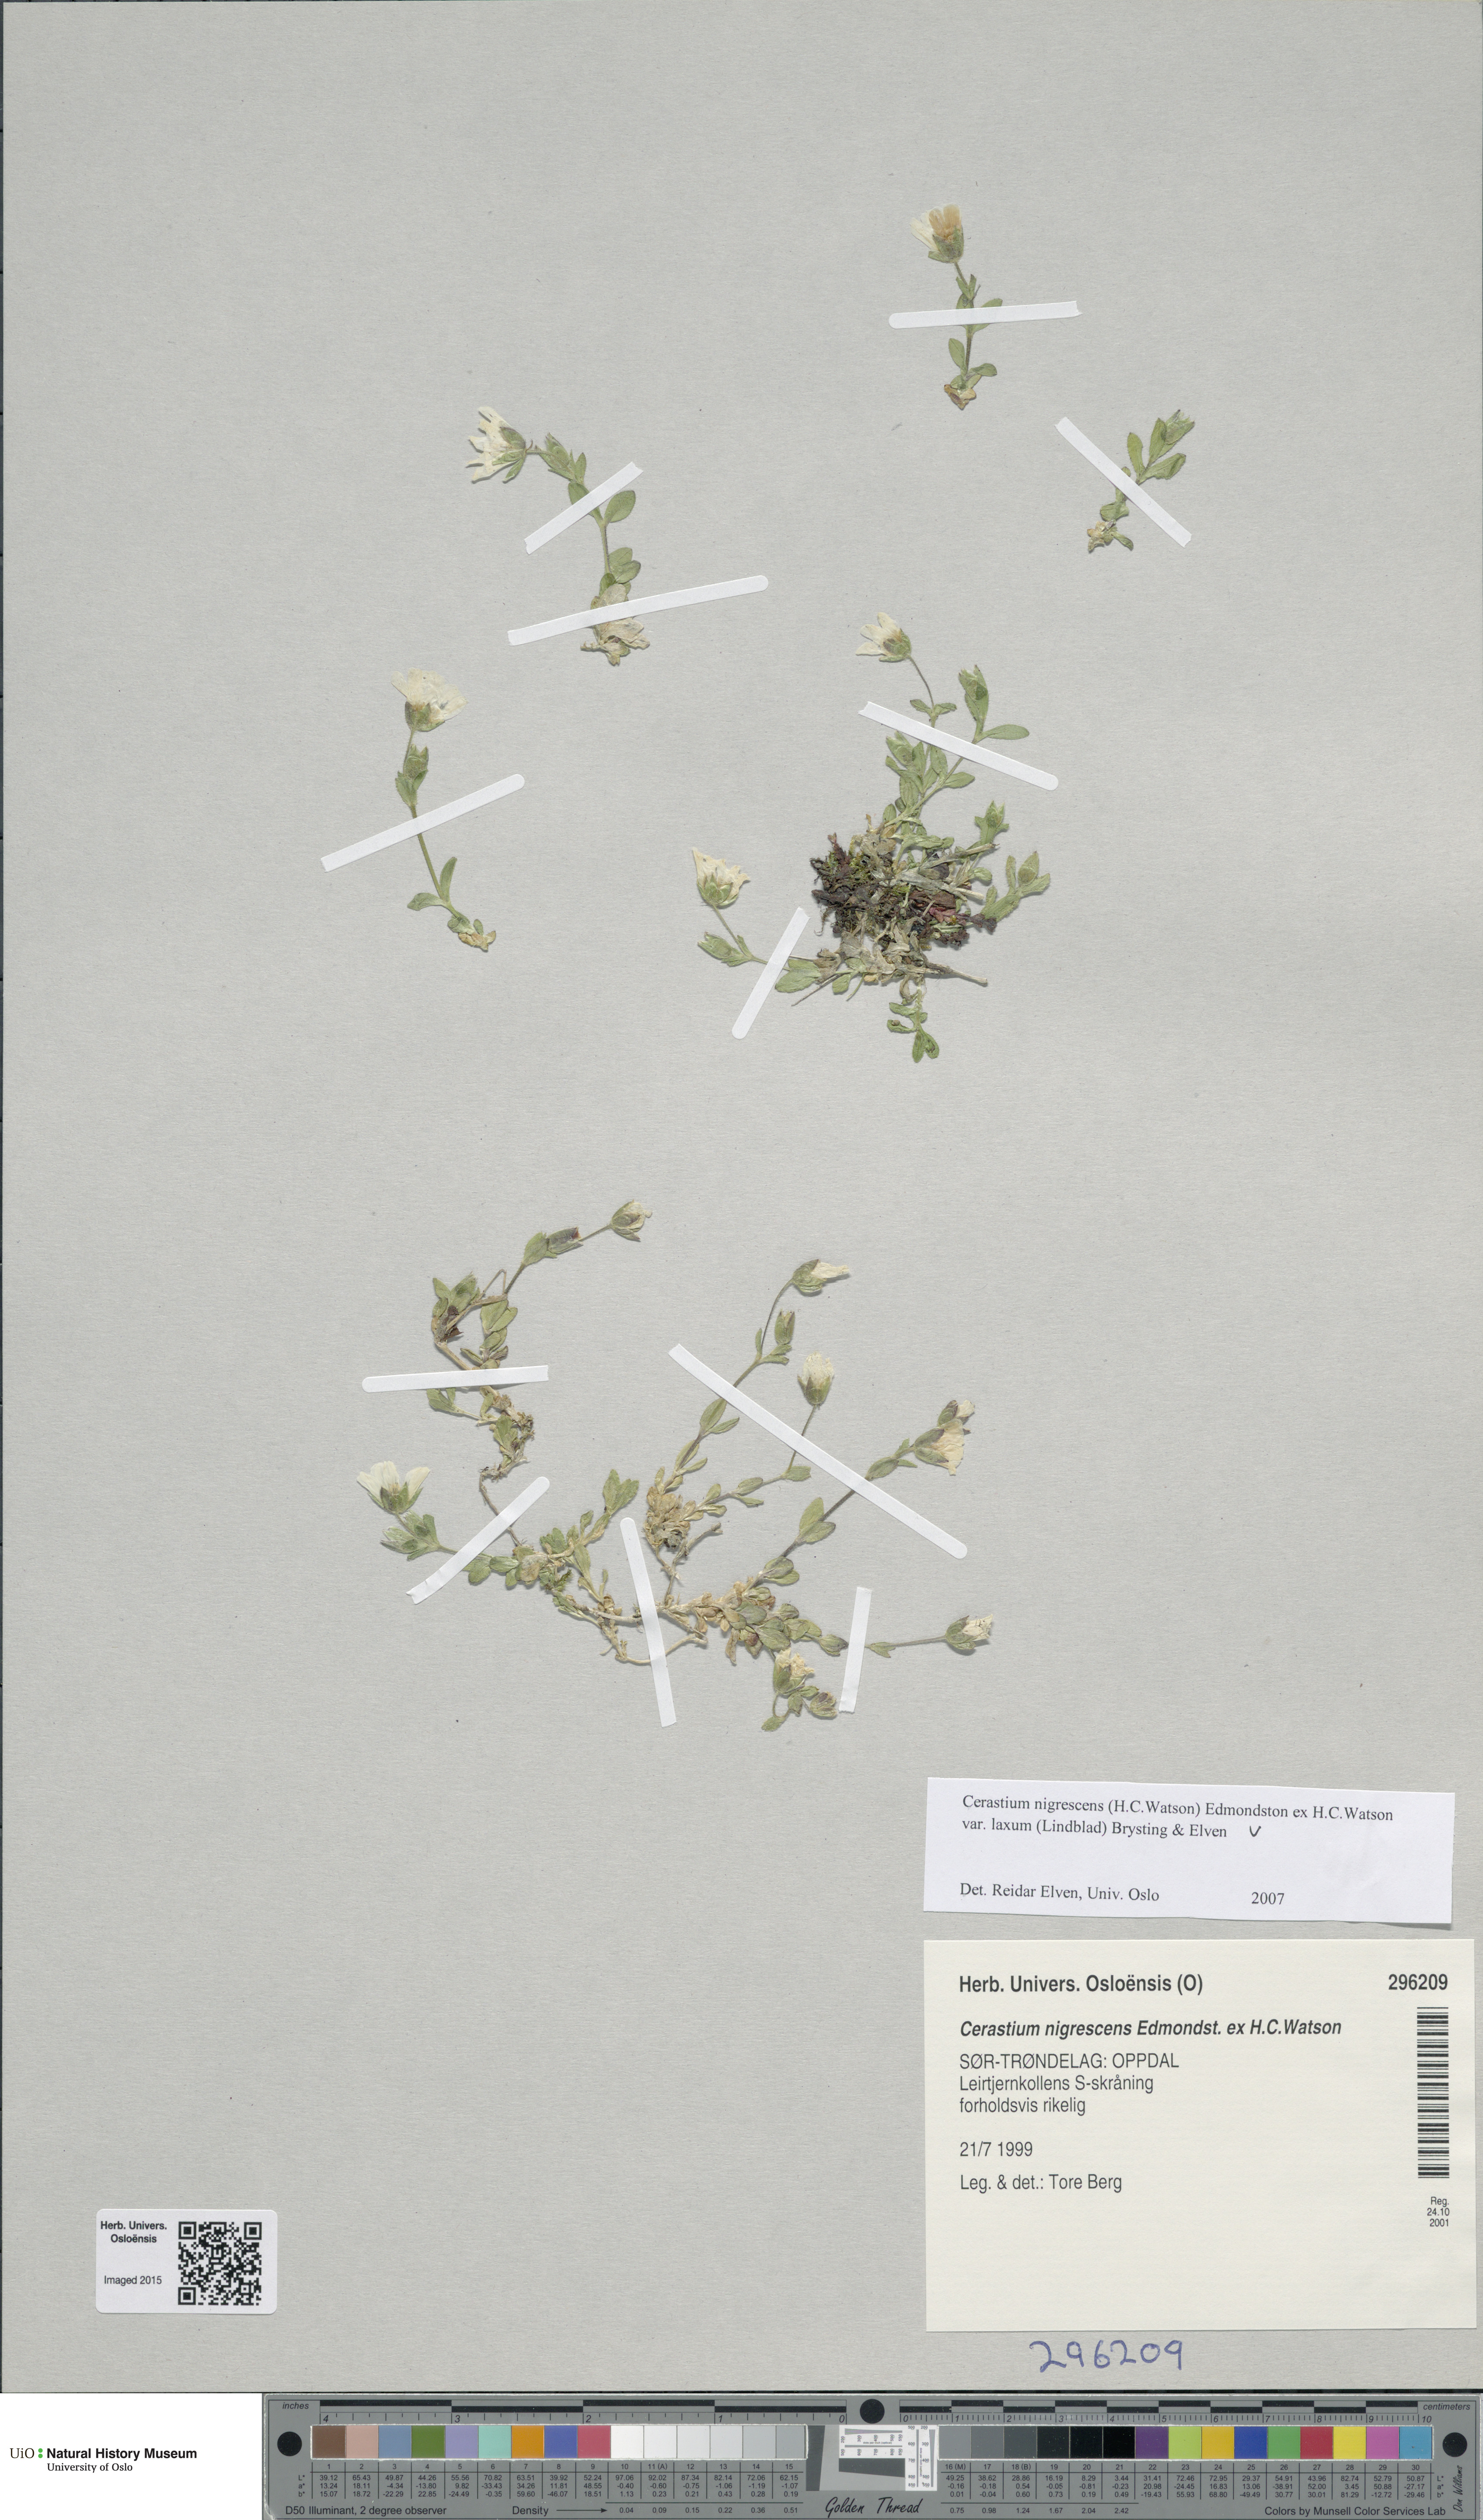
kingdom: Plantae
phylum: Tracheophyta
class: Magnoliopsida
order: Caryophyllales
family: Caryophyllaceae
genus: Cerastium
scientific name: Cerastium nigrescens
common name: Shetland mouse-ear
